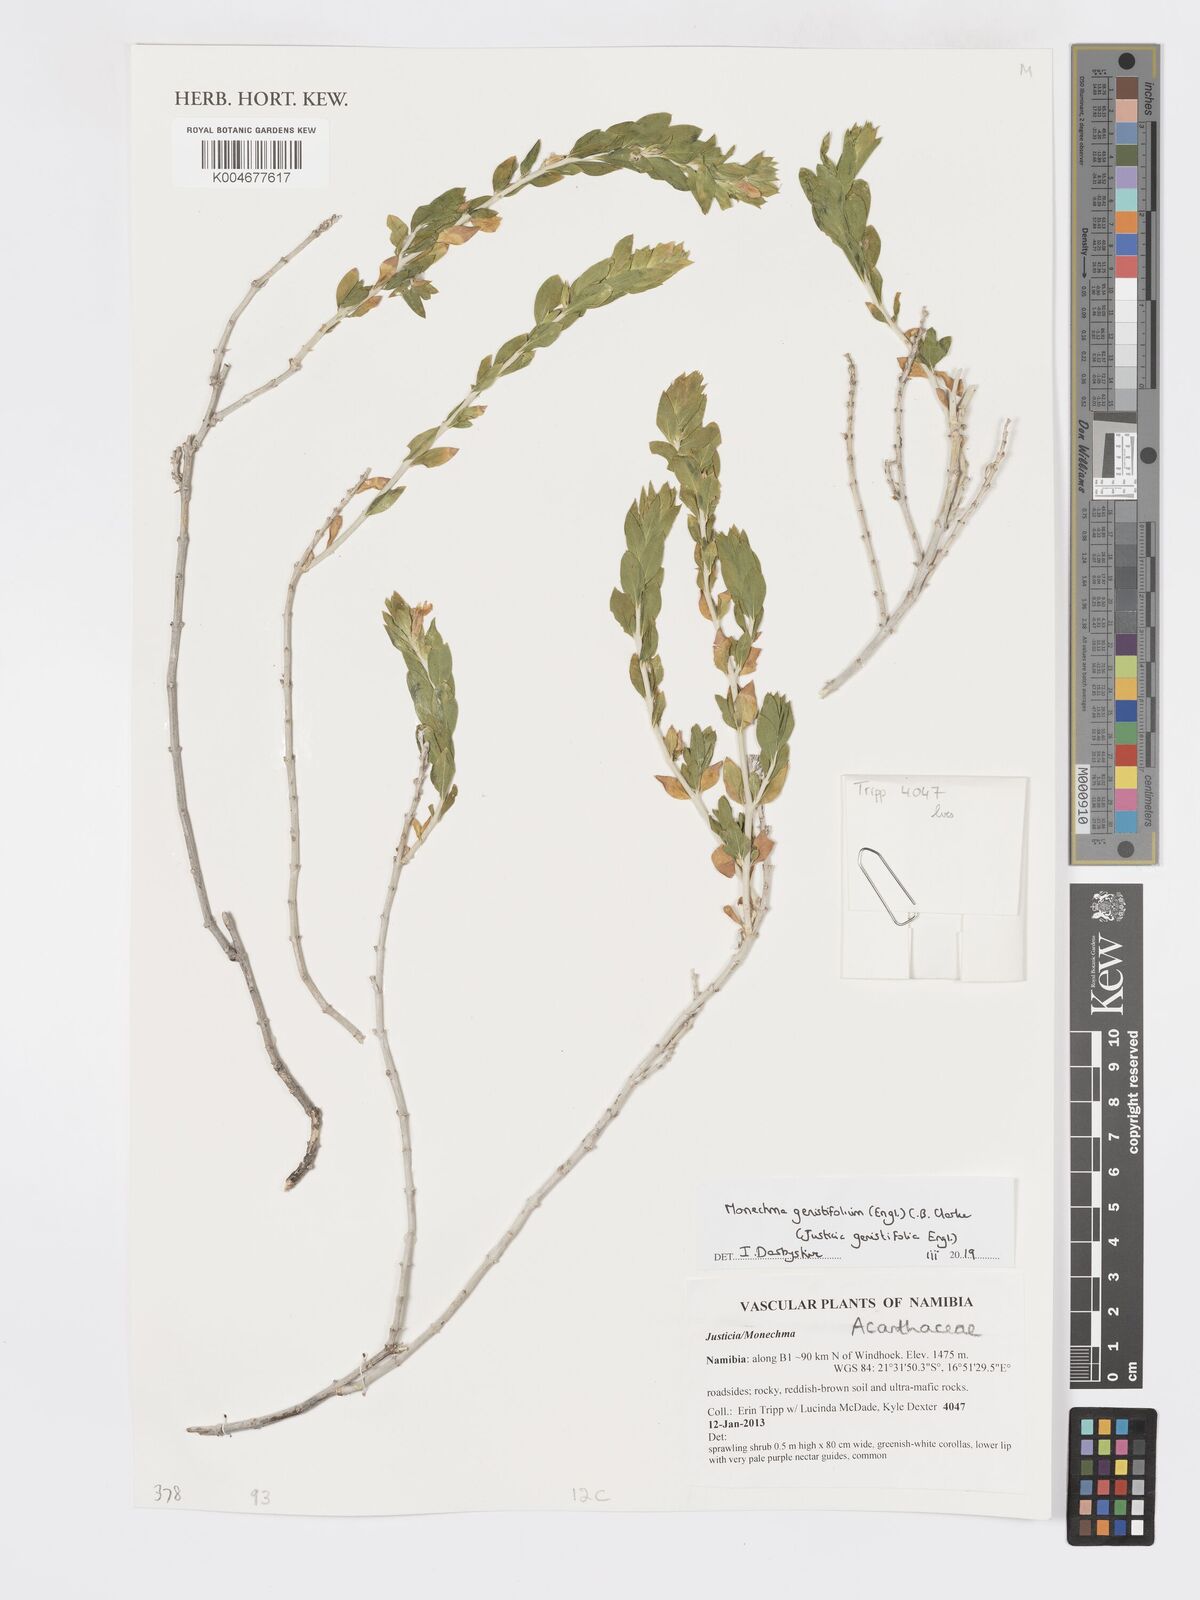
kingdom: Plantae
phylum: Tracheophyta
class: Magnoliopsida
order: Lamiales
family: Acanthaceae
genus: Pogonospermum
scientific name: Pogonospermum
